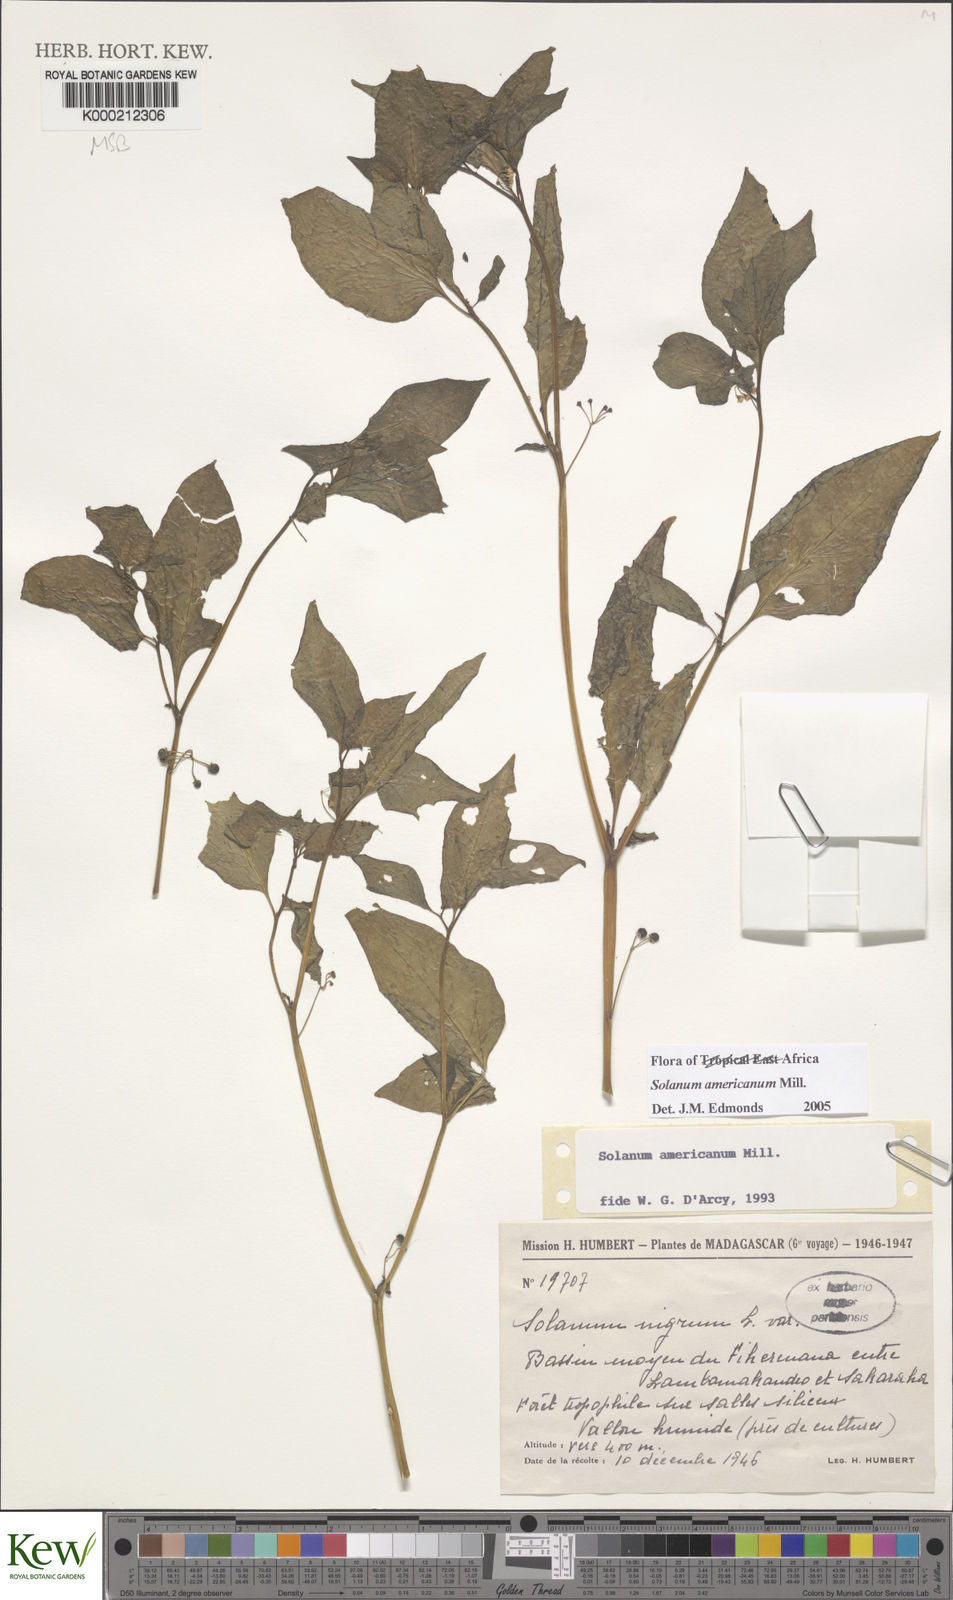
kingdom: Plantae
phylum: Tracheophyta
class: Magnoliopsida
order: Solanales
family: Solanaceae
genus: Solanum
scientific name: Solanum americanum
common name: American black nightshade
